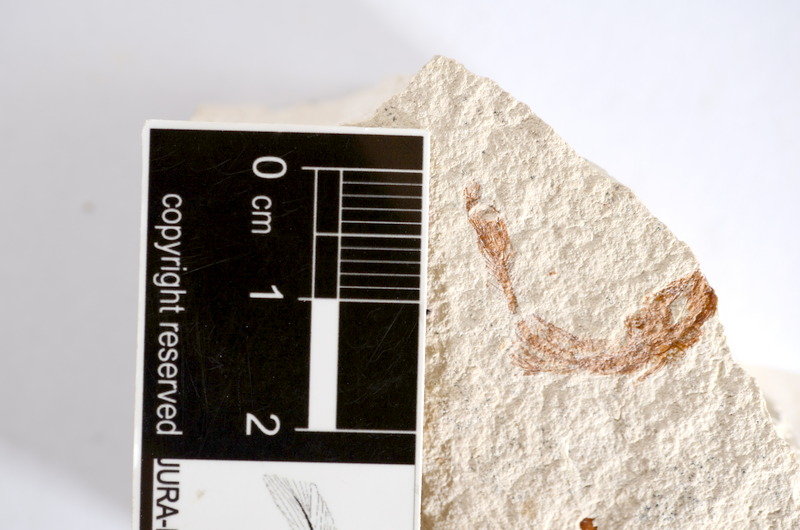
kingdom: Animalia
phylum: Chordata
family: Ascalaboidae
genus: Tharsis
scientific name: Tharsis dubius
